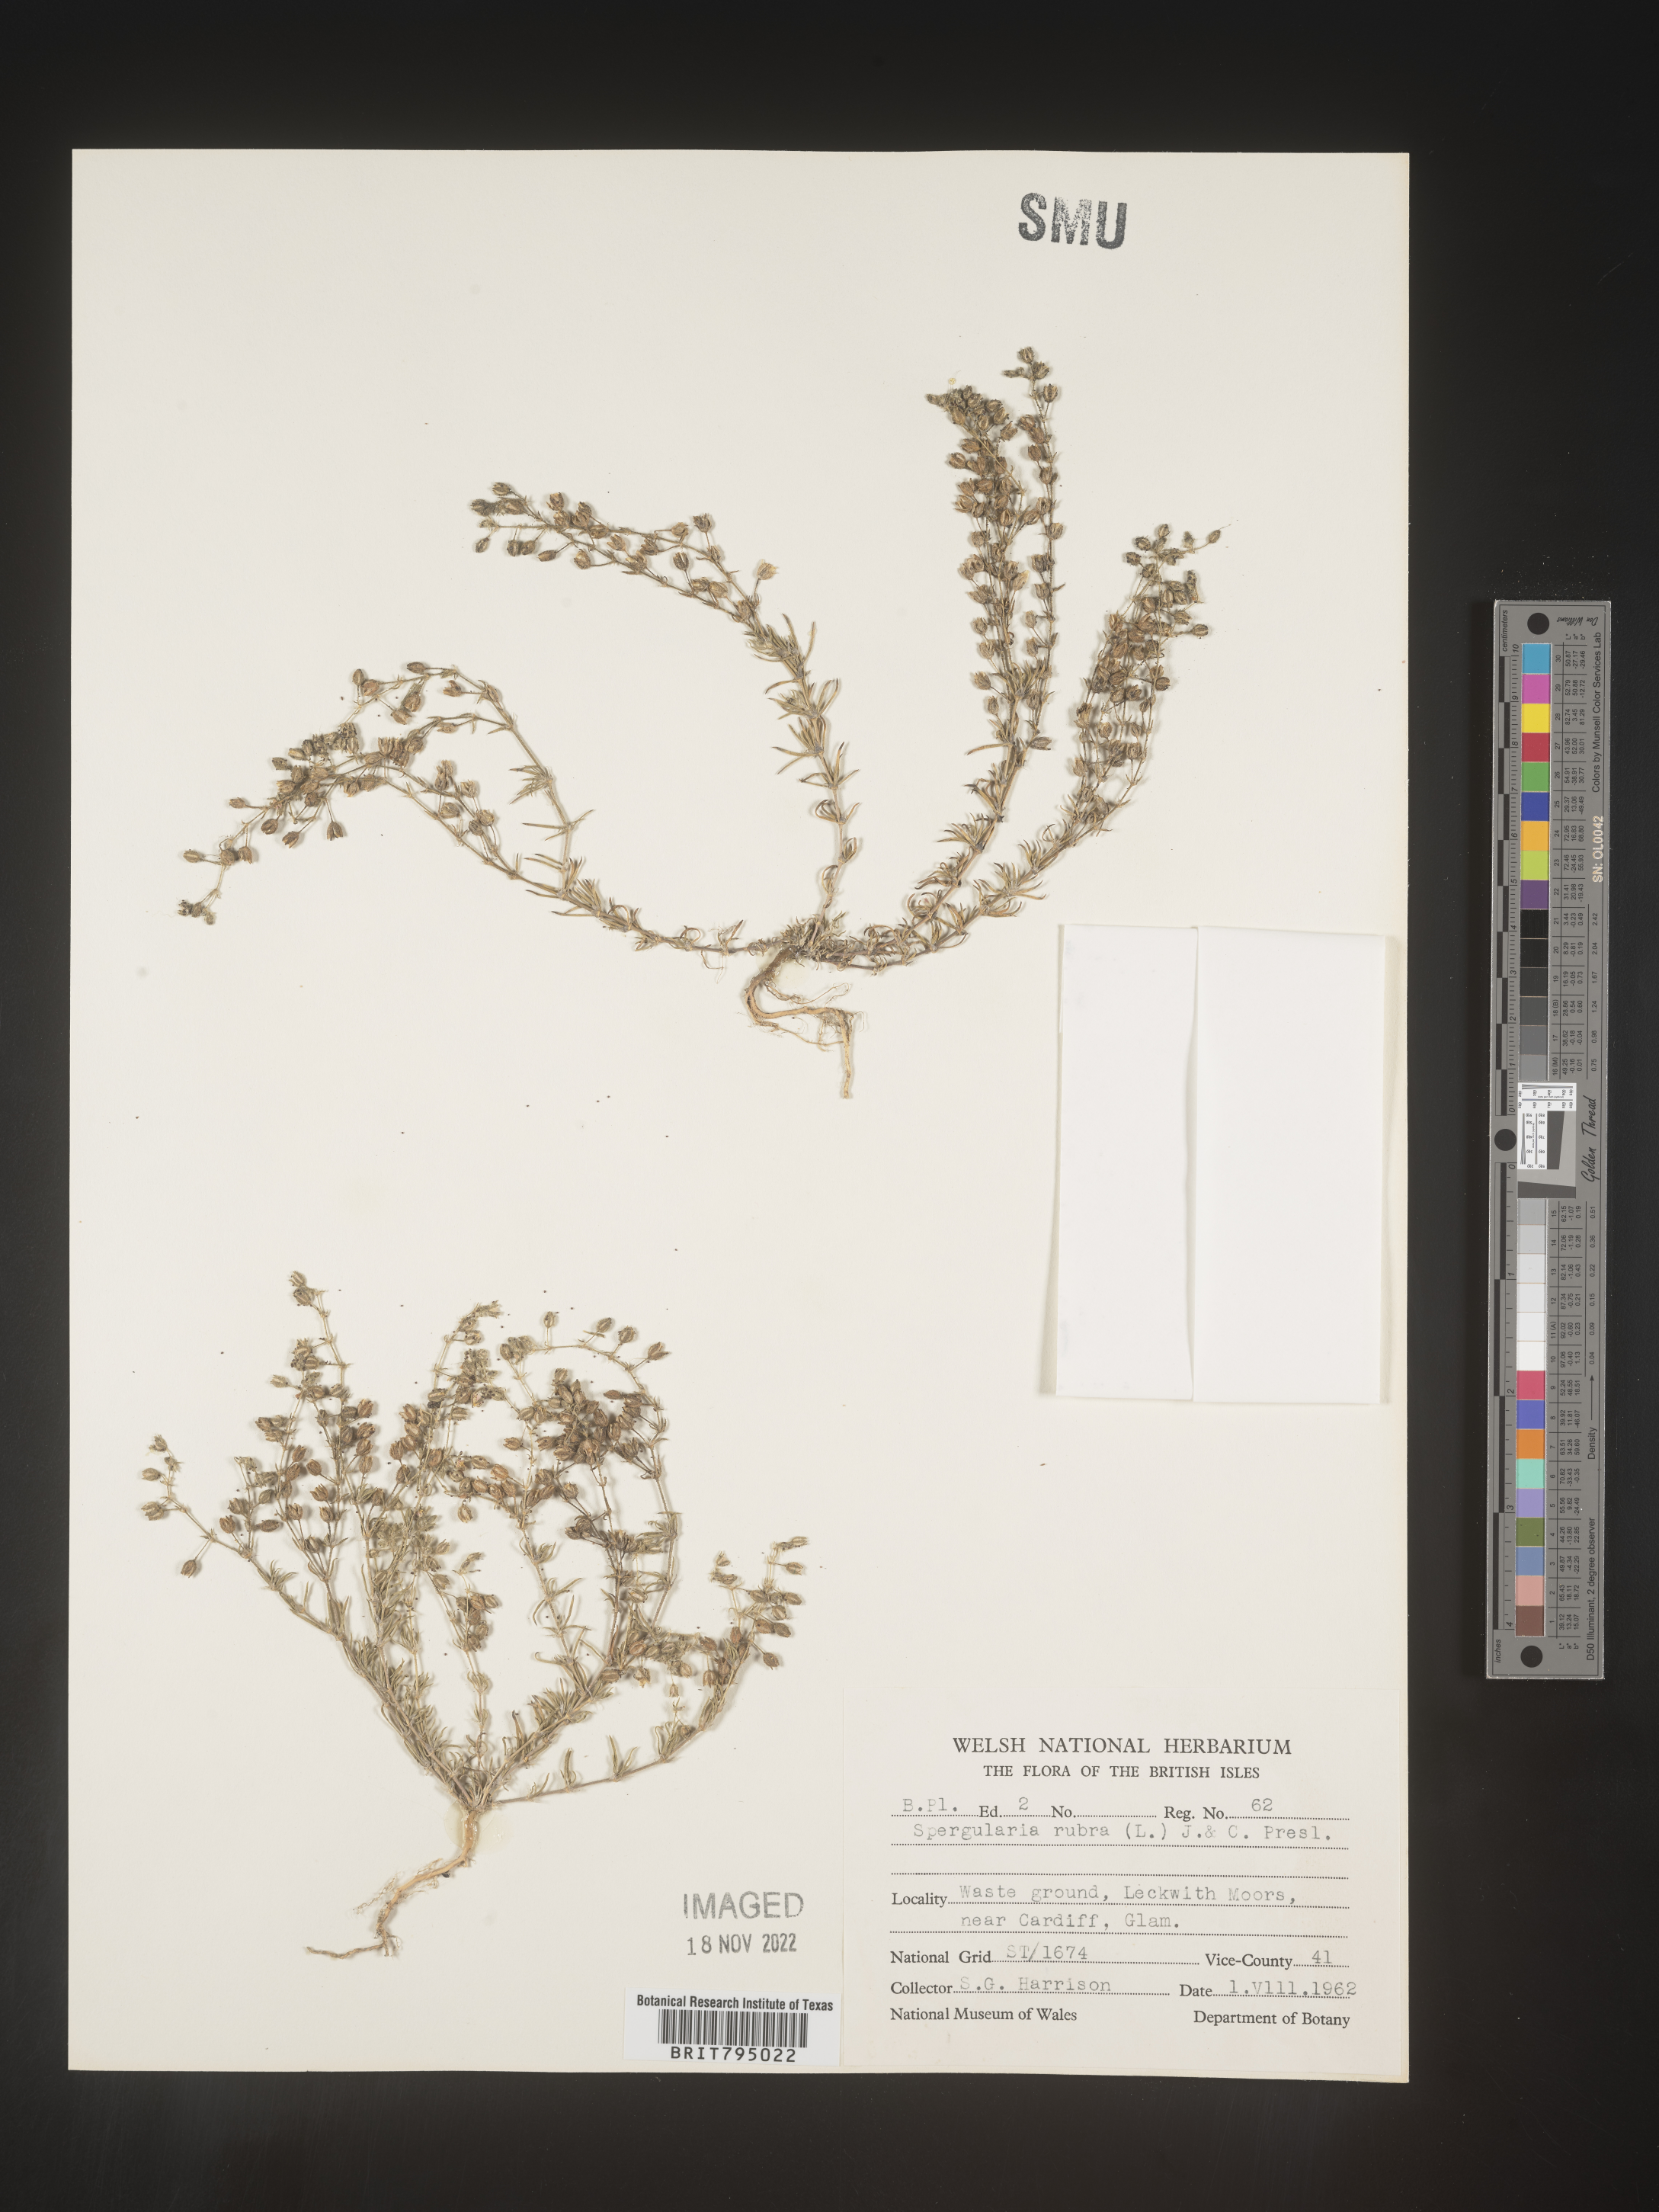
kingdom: Plantae
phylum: Tracheophyta
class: Magnoliopsida
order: Caryophyllales
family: Caryophyllaceae
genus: Spergula
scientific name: Spergula rubra
